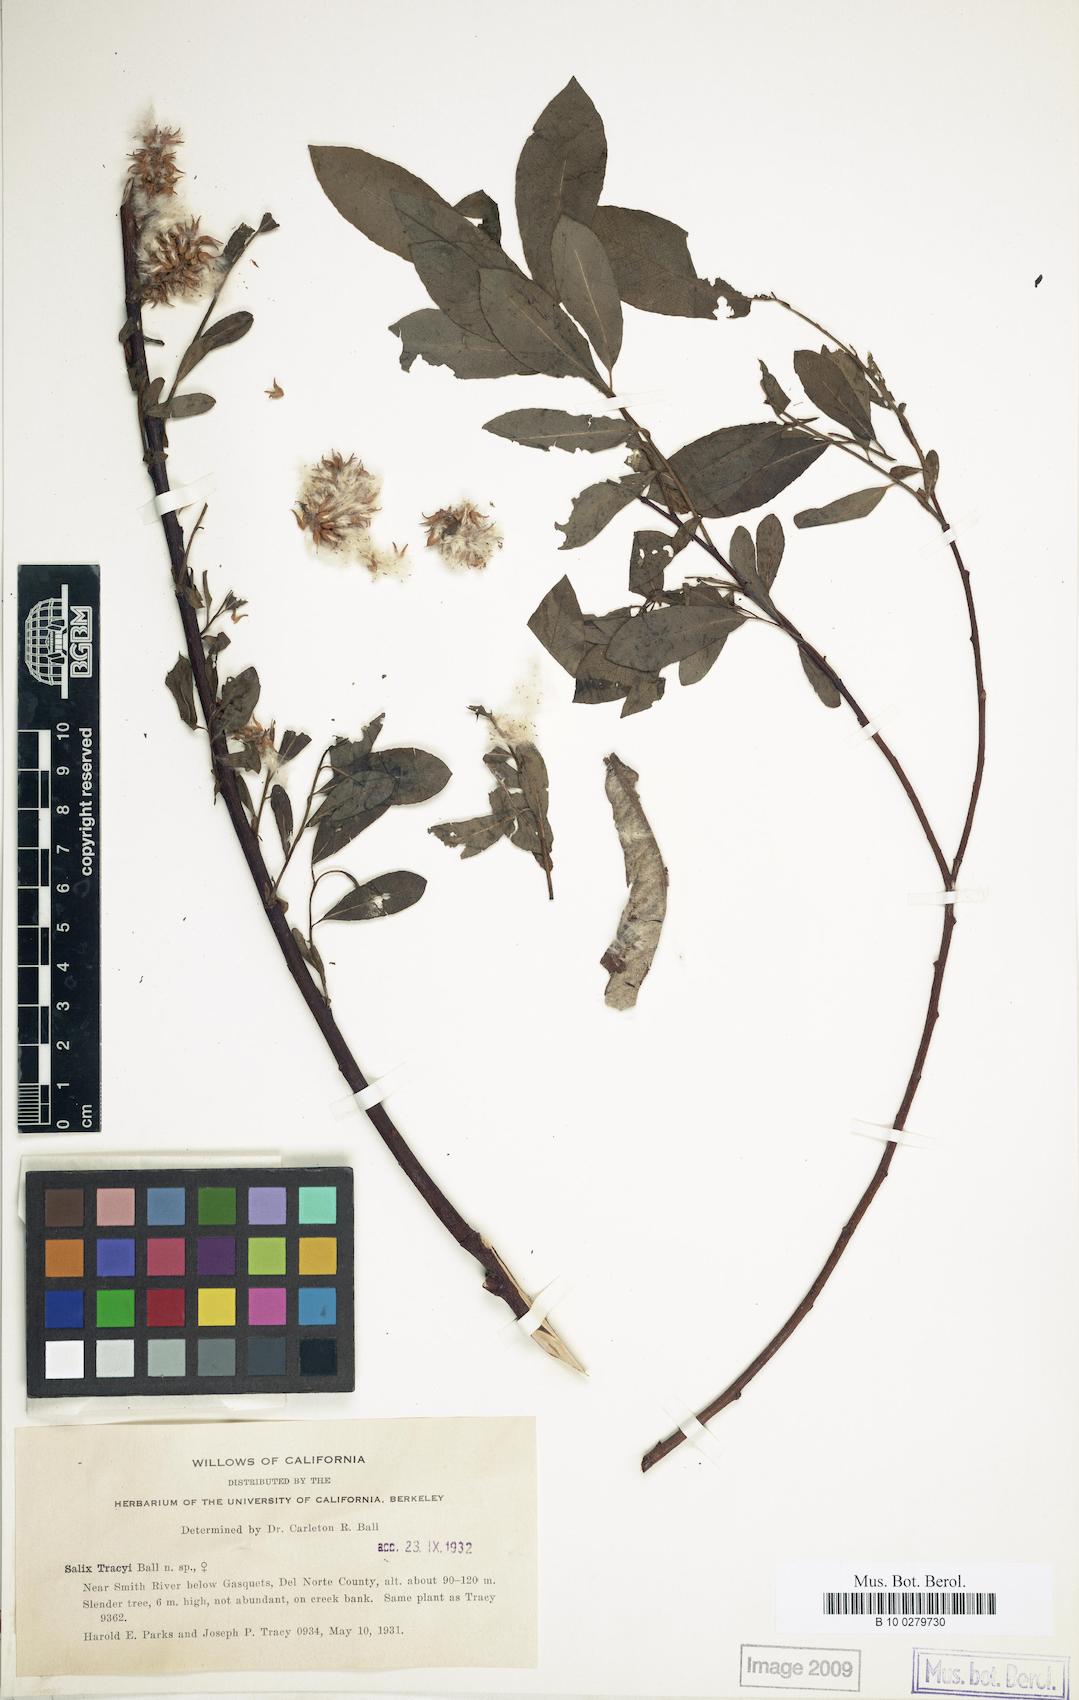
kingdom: Plantae
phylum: Tracheophyta
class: Magnoliopsida
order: Malpighiales
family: Salicaceae
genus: Salix
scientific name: Salix tracyi
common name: Tracy’s willow
